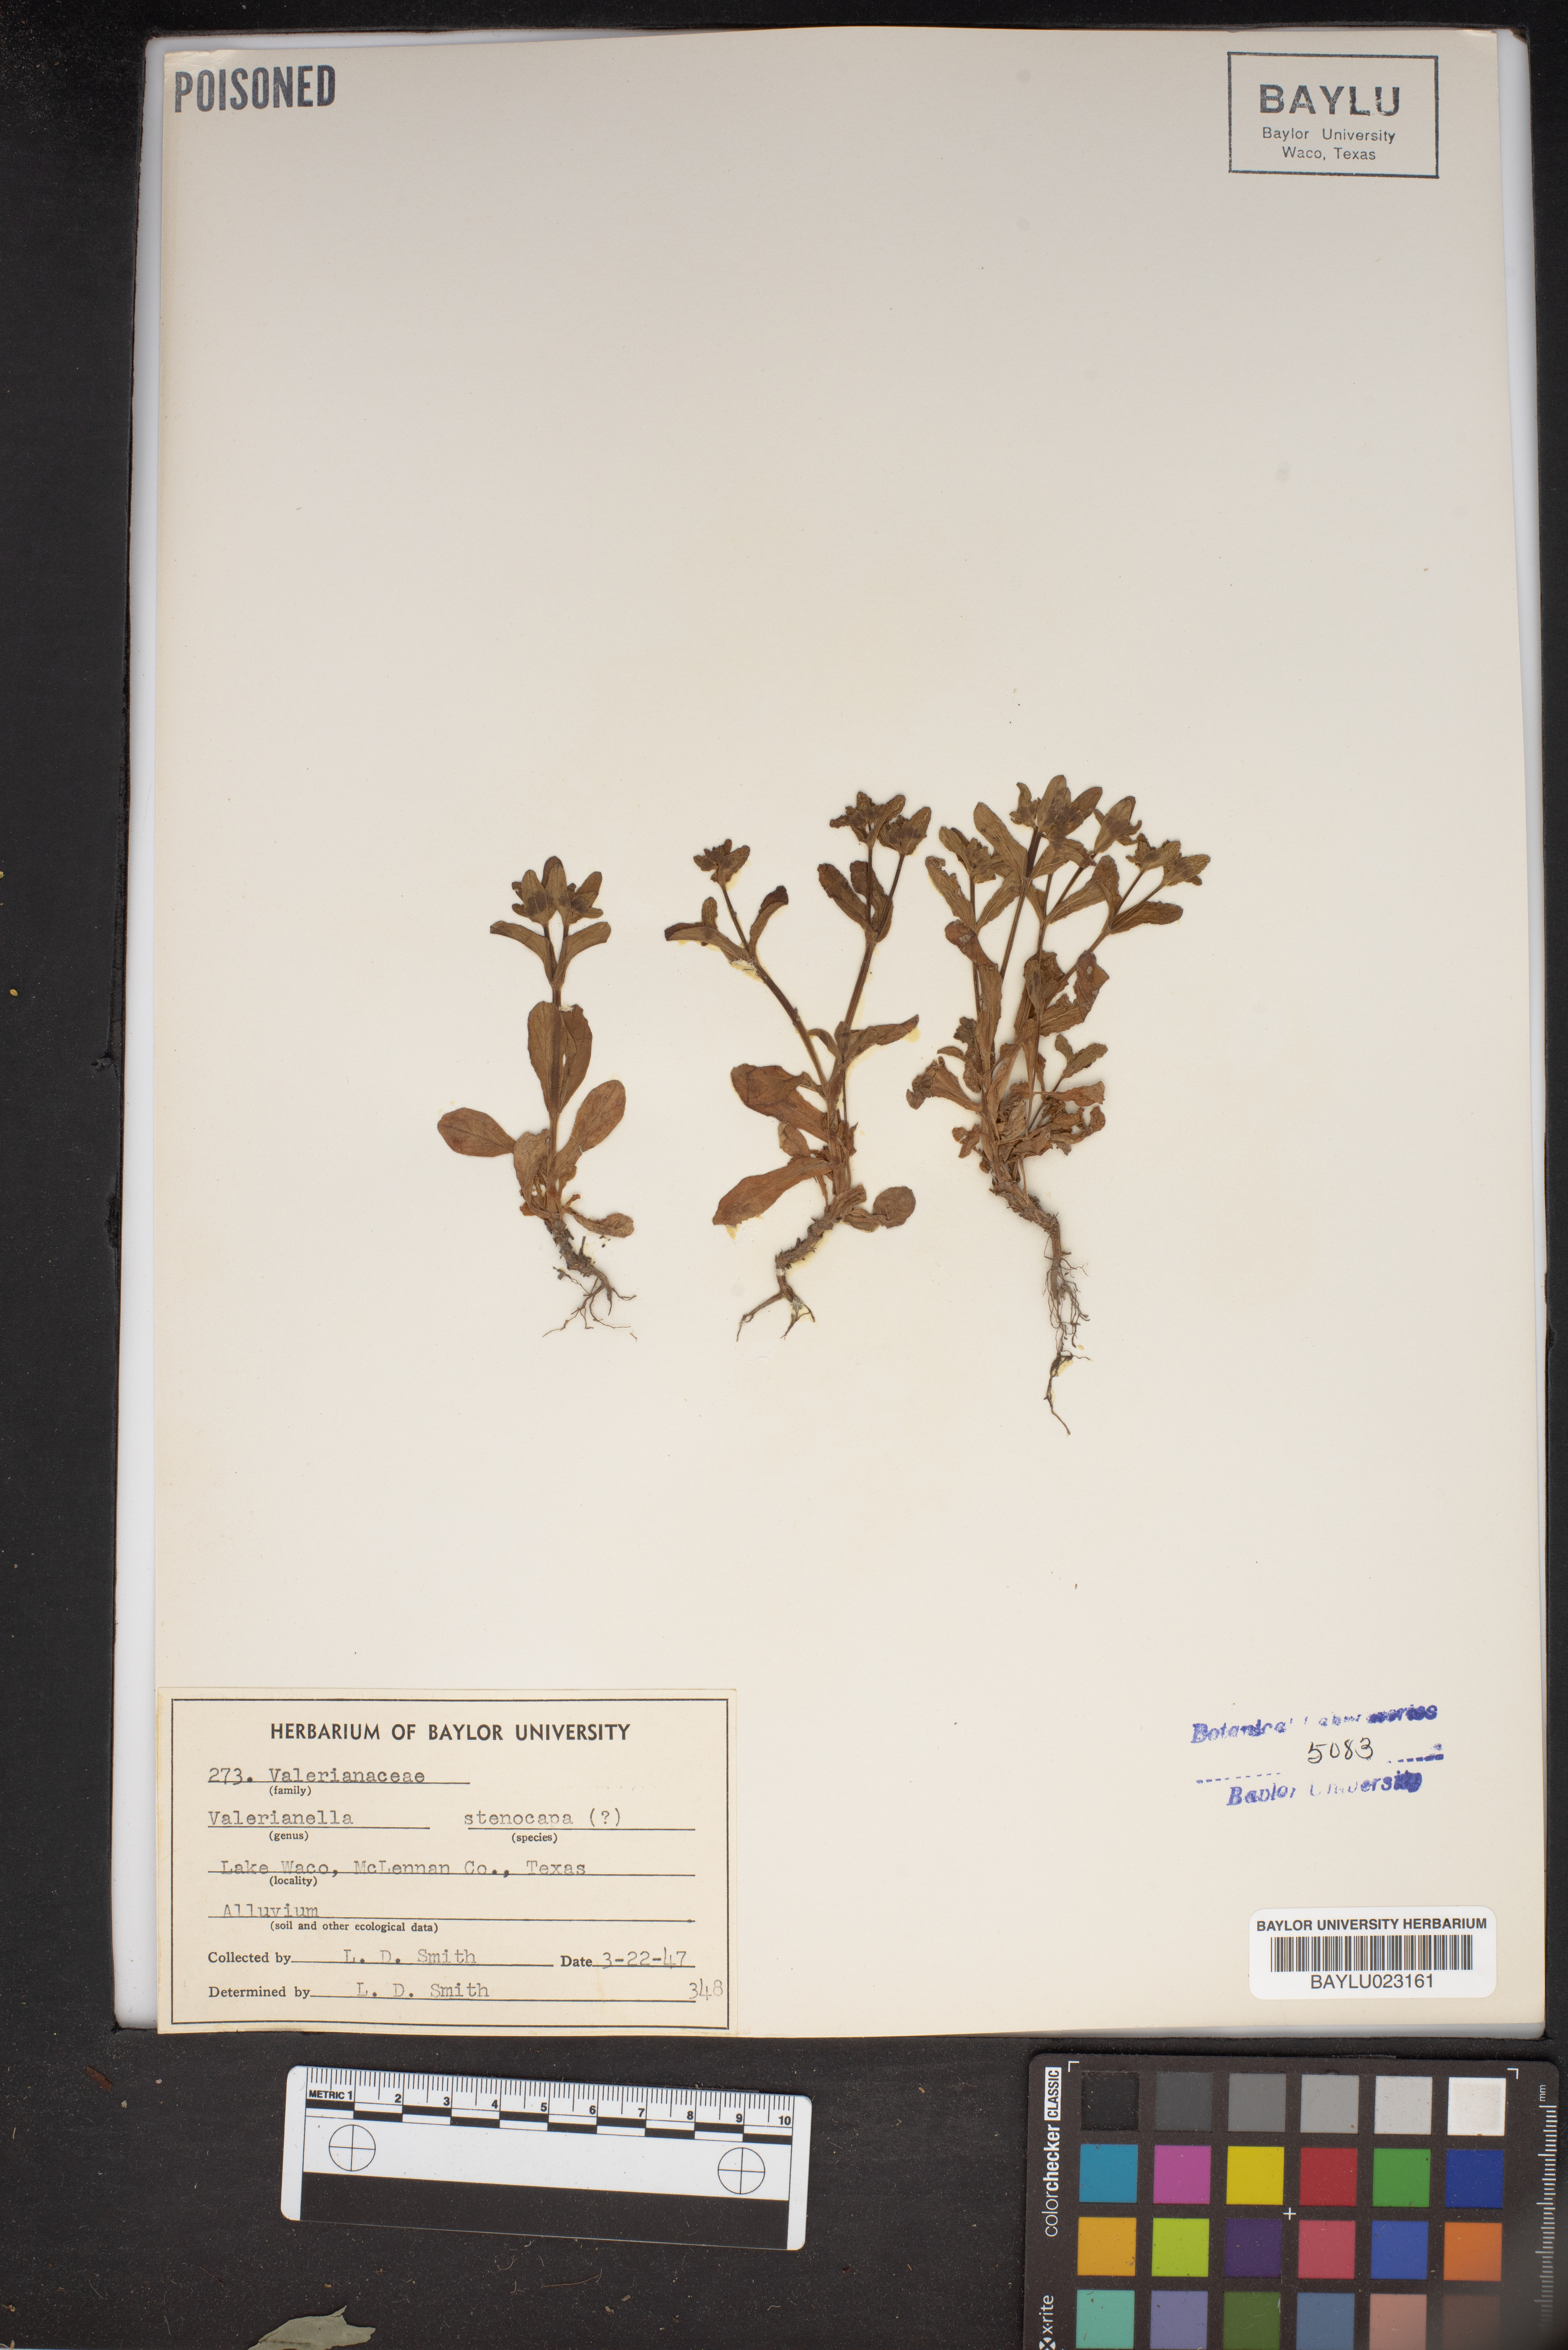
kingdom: Plantae
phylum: Tracheophyta
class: Magnoliopsida
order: Dipsacales
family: Caprifoliaceae
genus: Valerianella
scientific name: Valerianella stenocarpa
